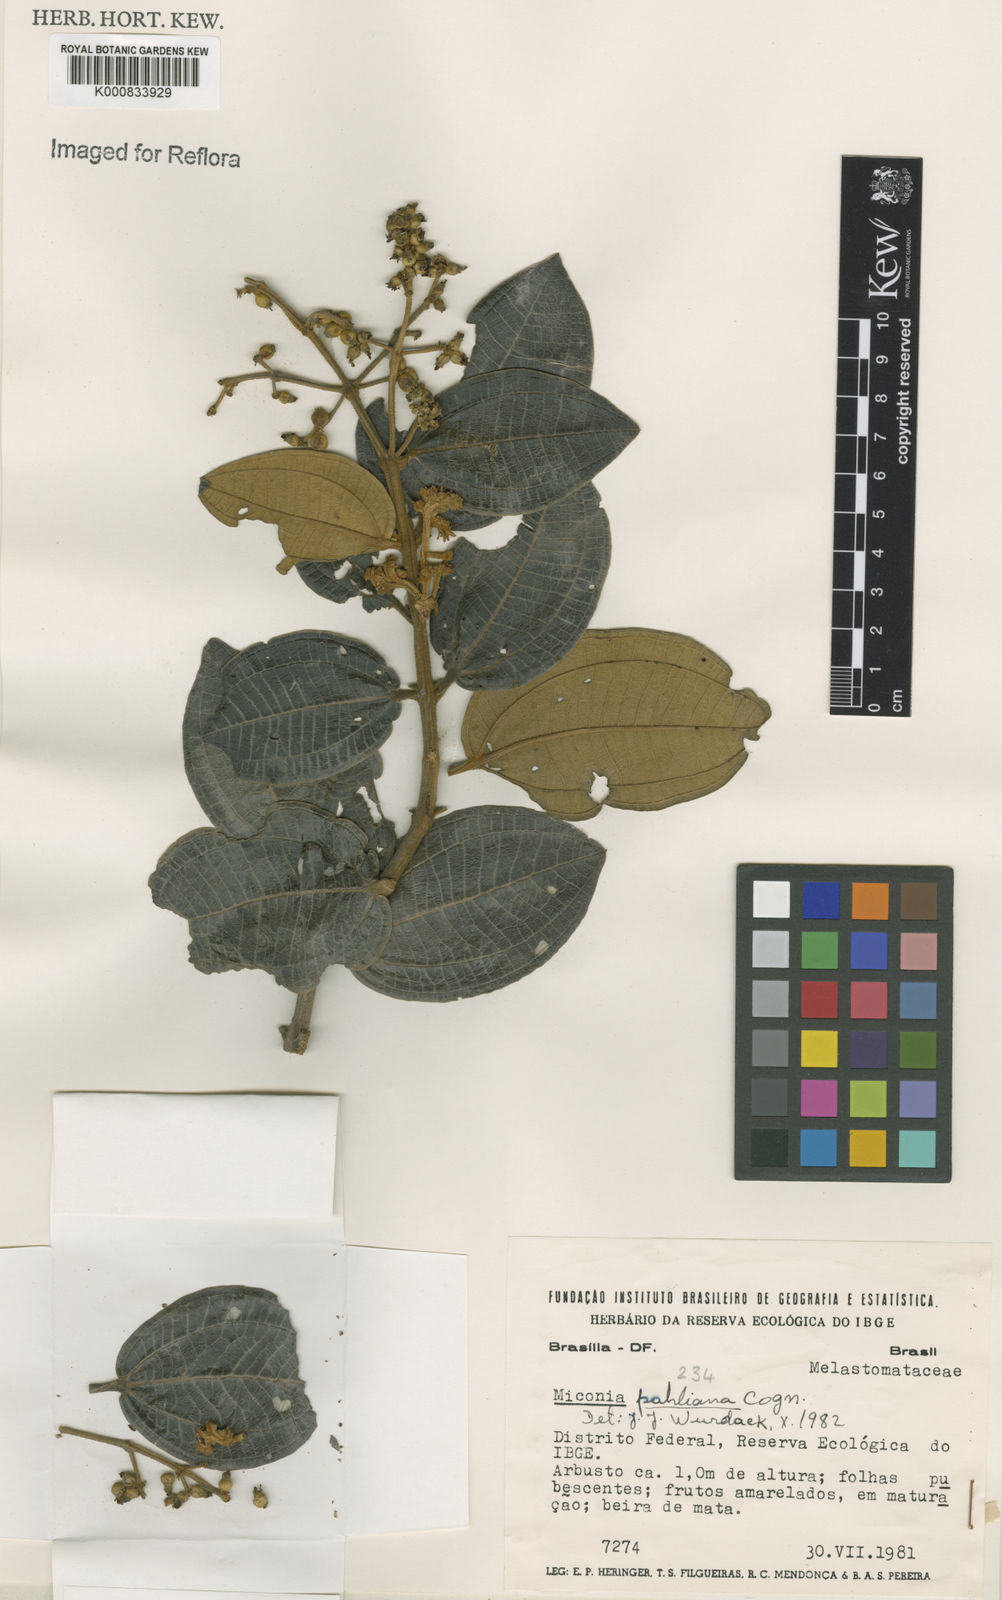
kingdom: Plantae
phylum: Tracheophyta
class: Magnoliopsida
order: Myrtales
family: Melastomataceae
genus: Miconia
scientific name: Miconia leucocarpa
